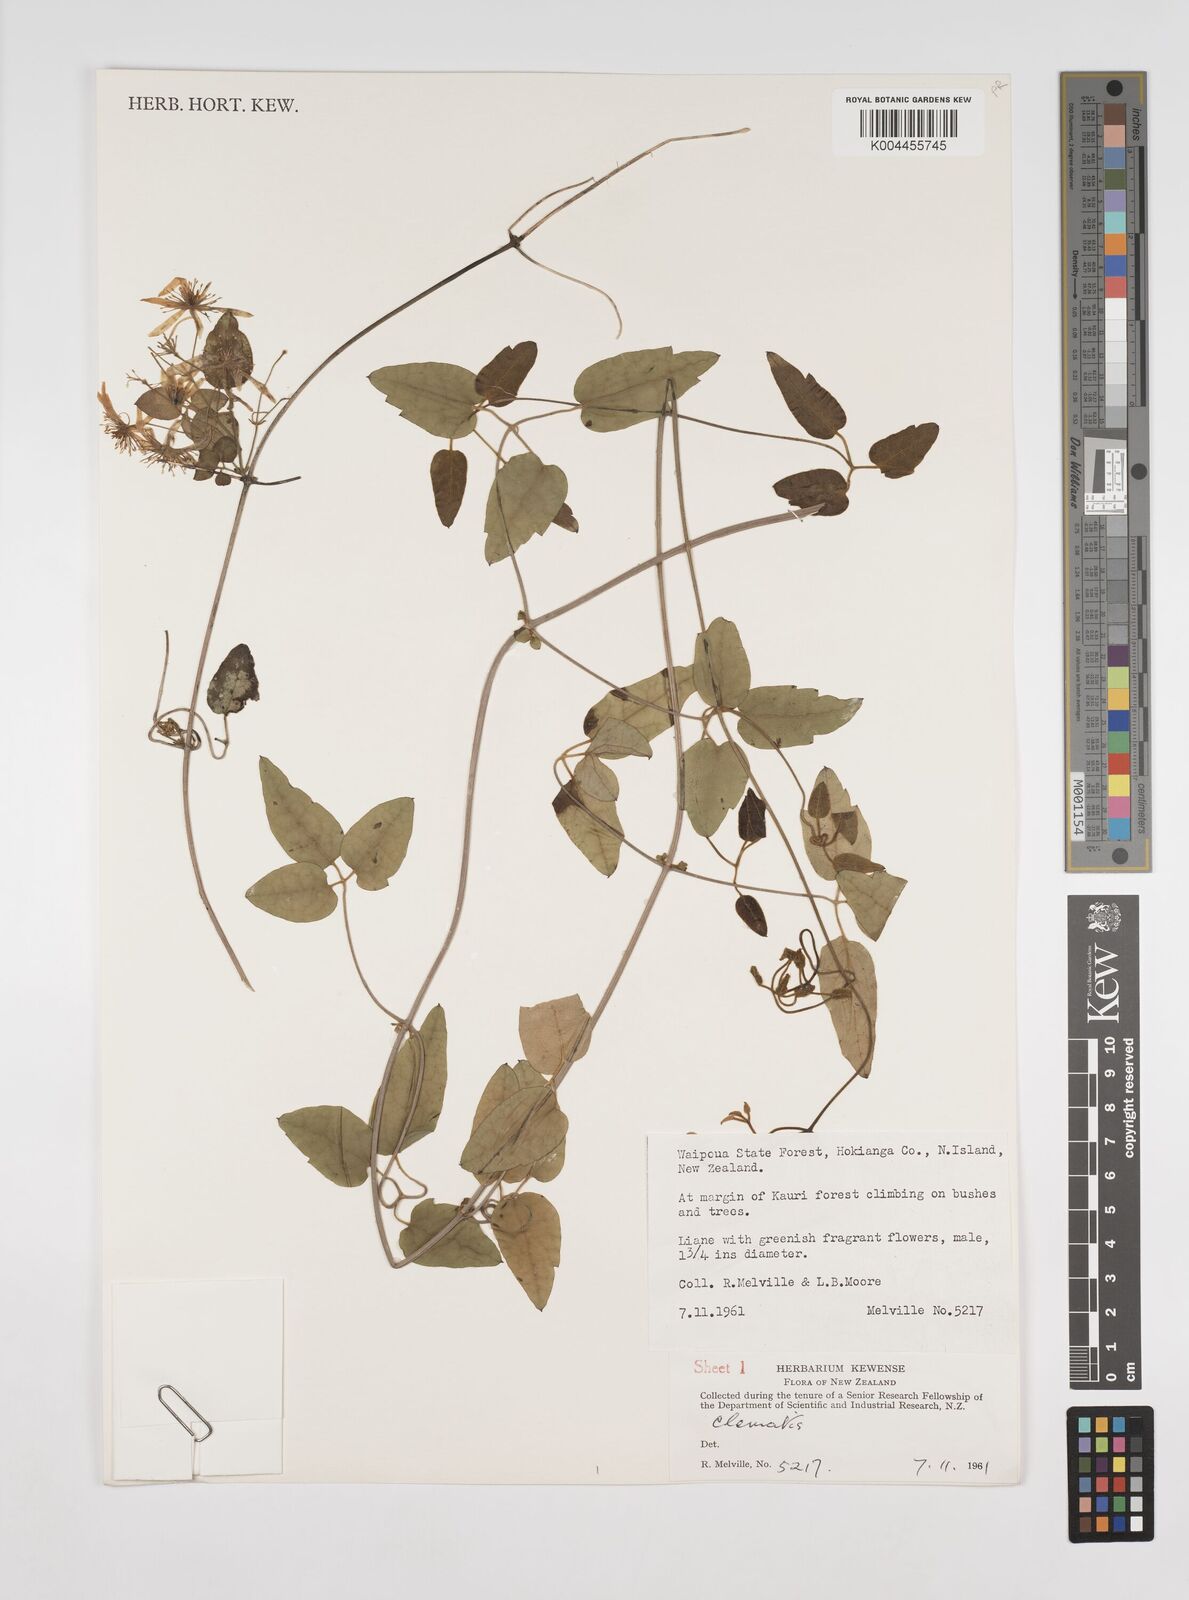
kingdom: Plantae
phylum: Tracheophyta
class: Magnoliopsida
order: Ranunculales
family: Ranunculaceae
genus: Clematis
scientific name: Clematis
